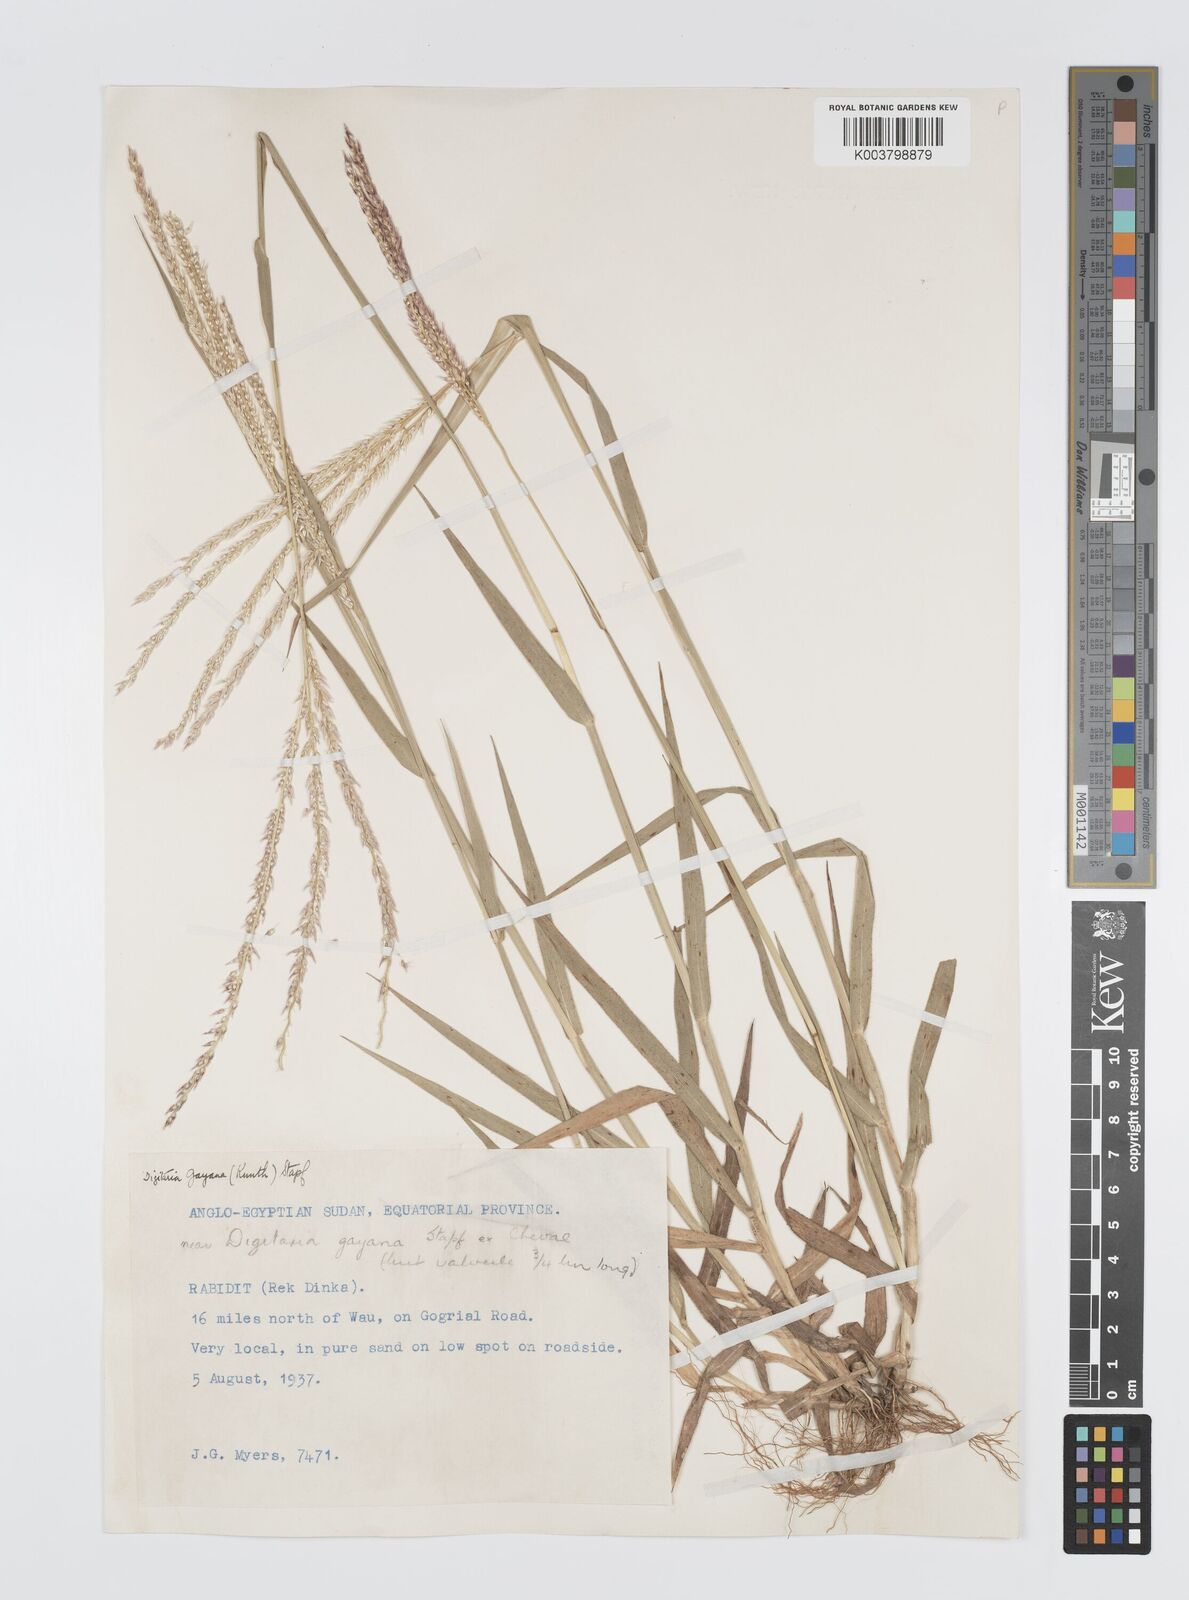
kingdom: Plantae
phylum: Tracheophyta
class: Liliopsida
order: Poales
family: Poaceae
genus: Digitaria
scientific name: Digitaria gayana
